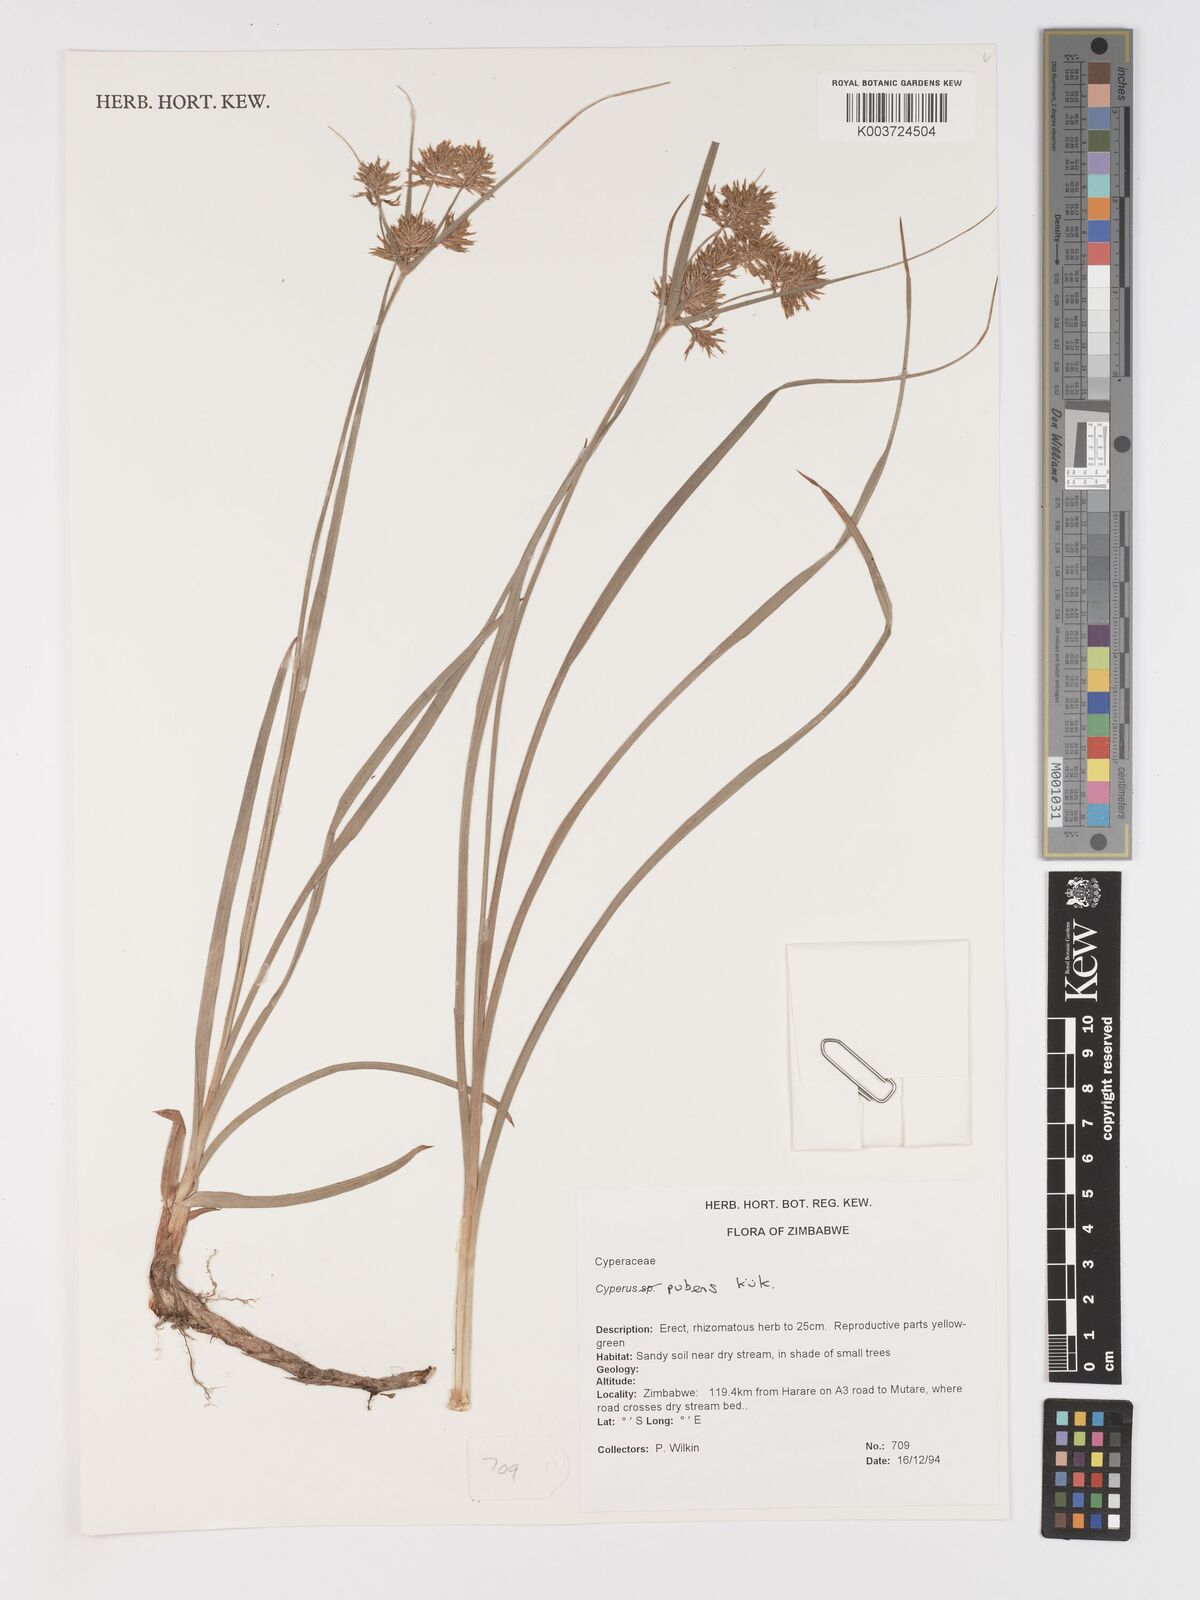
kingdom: Plantae
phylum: Tracheophyta
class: Liliopsida
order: Poales
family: Cyperaceae
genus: Cyperus
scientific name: Cyperus pubens
